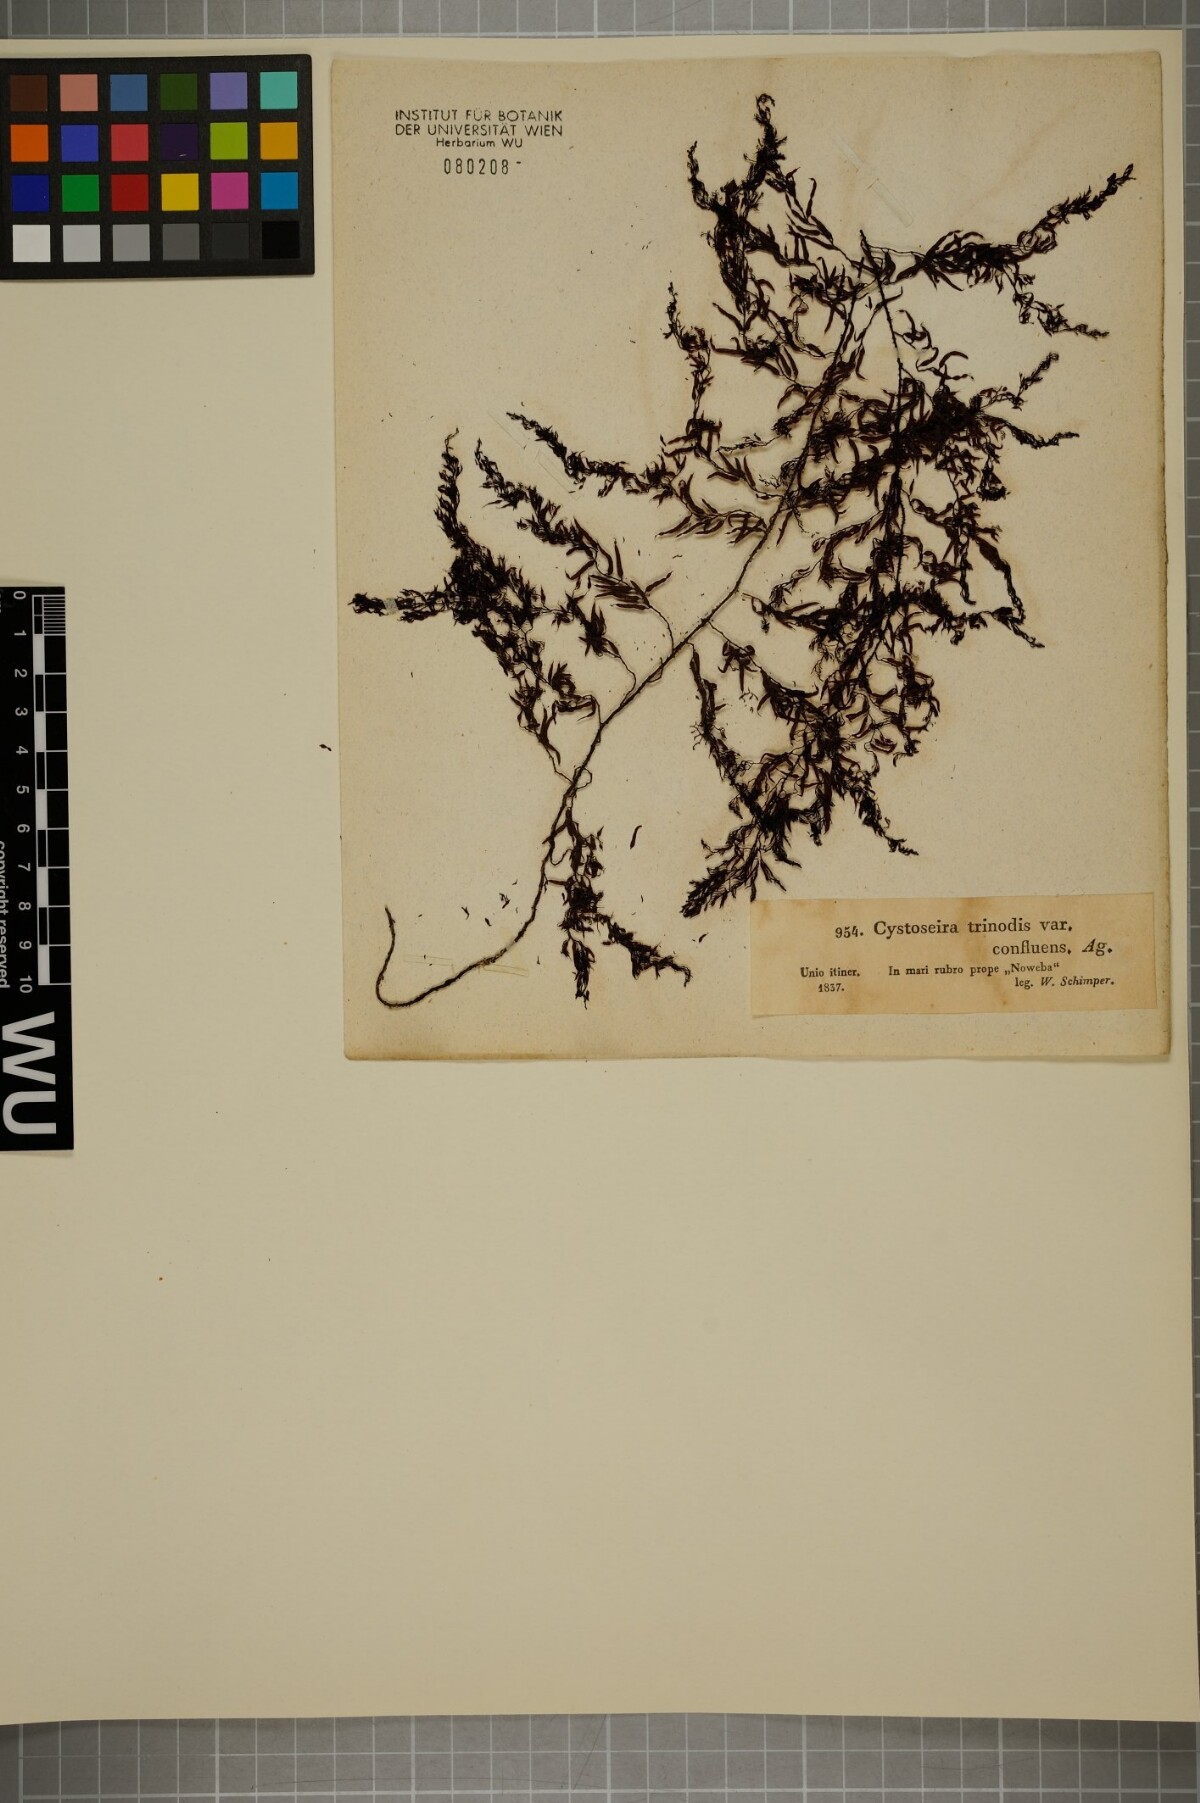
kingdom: Chromista
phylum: Ochrophyta
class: Phaeophyceae
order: Fucales
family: Sargassaceae
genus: Cystoseira
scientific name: Cystoseira Sirophysalis trinodis
